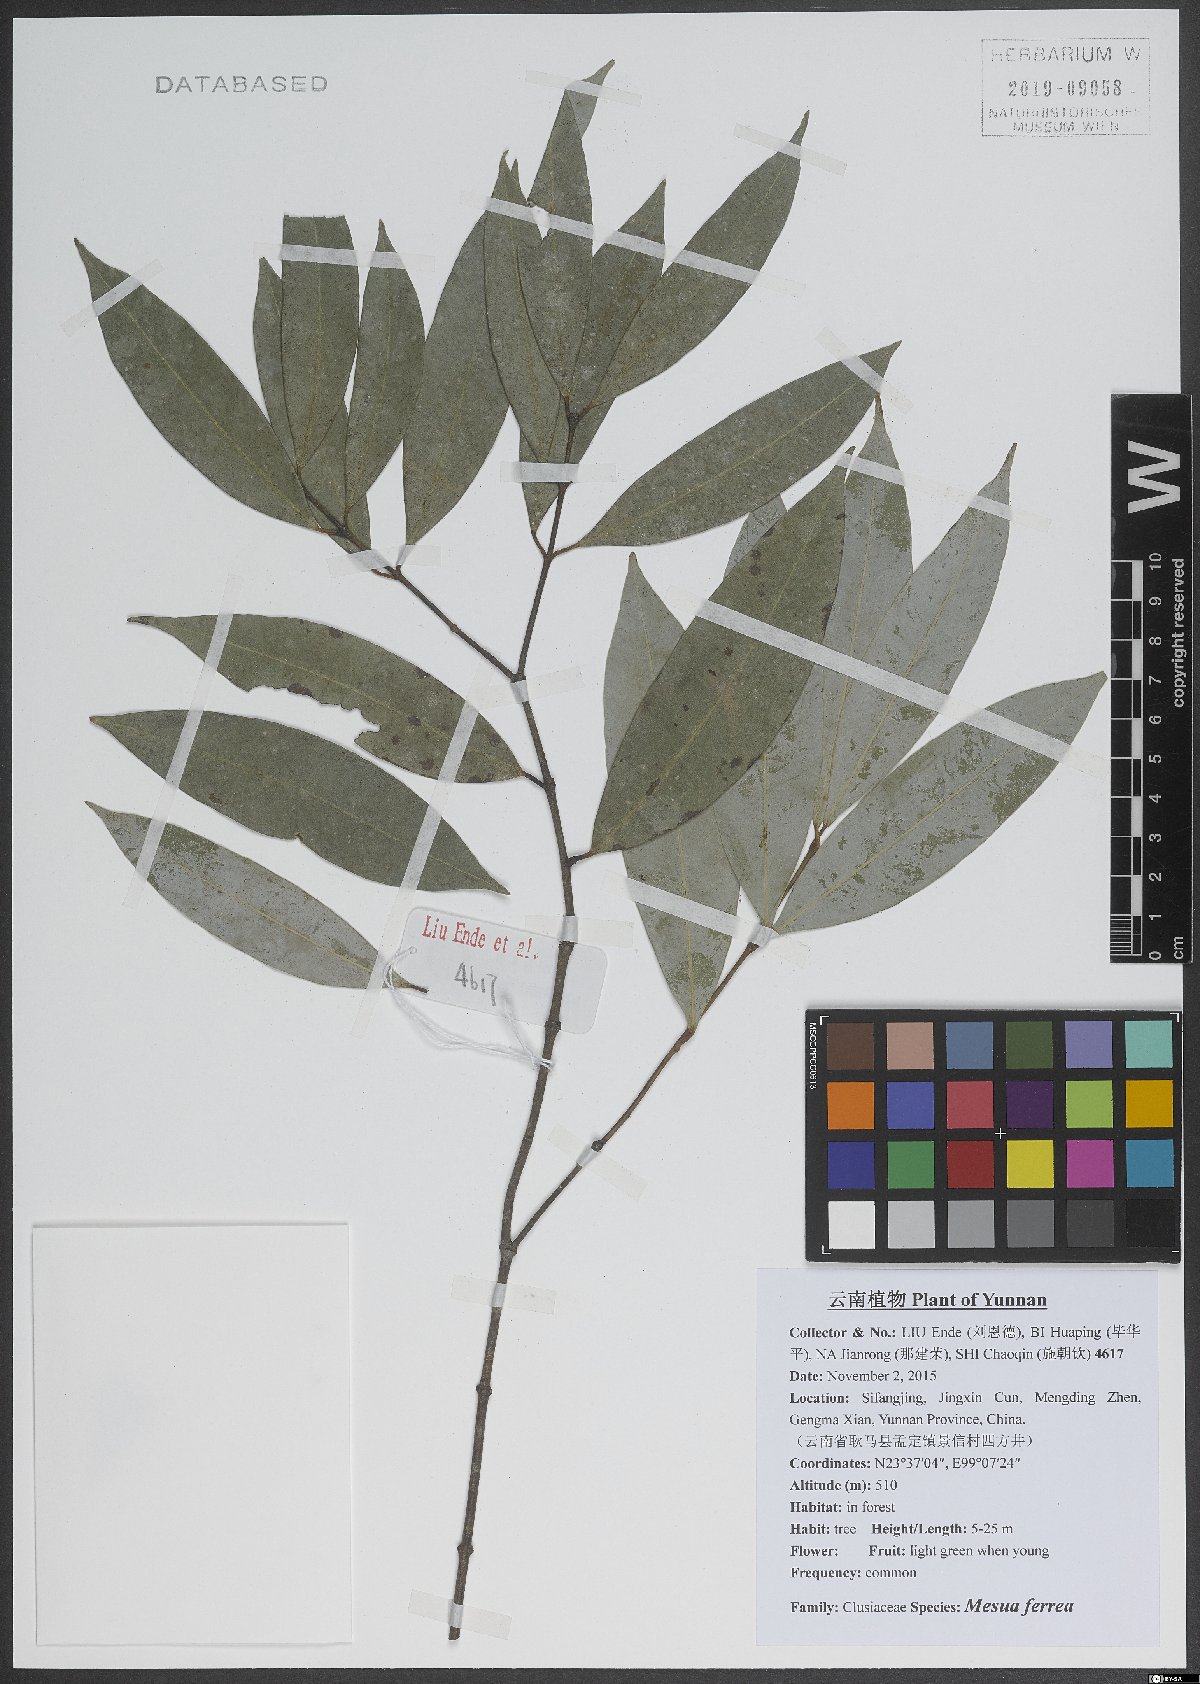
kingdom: Plantae
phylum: Tracheophyta
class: Magnoliopsida
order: Malpighiales
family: Calophyllaceae
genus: Mesua
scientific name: Mesua ferrea
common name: Mesua
